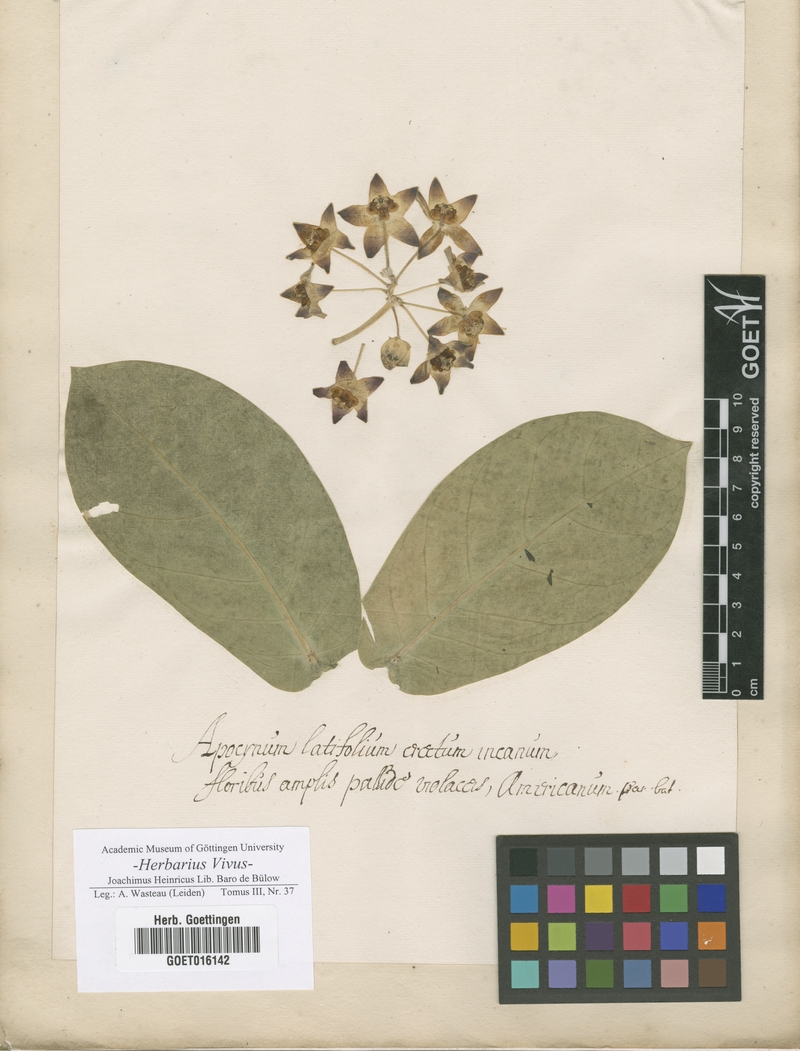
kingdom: Plantae
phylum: Tracheophyta
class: Magnoliopsida
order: Gentianales
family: Apocynaceae
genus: Apocynum
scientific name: Apocynum
